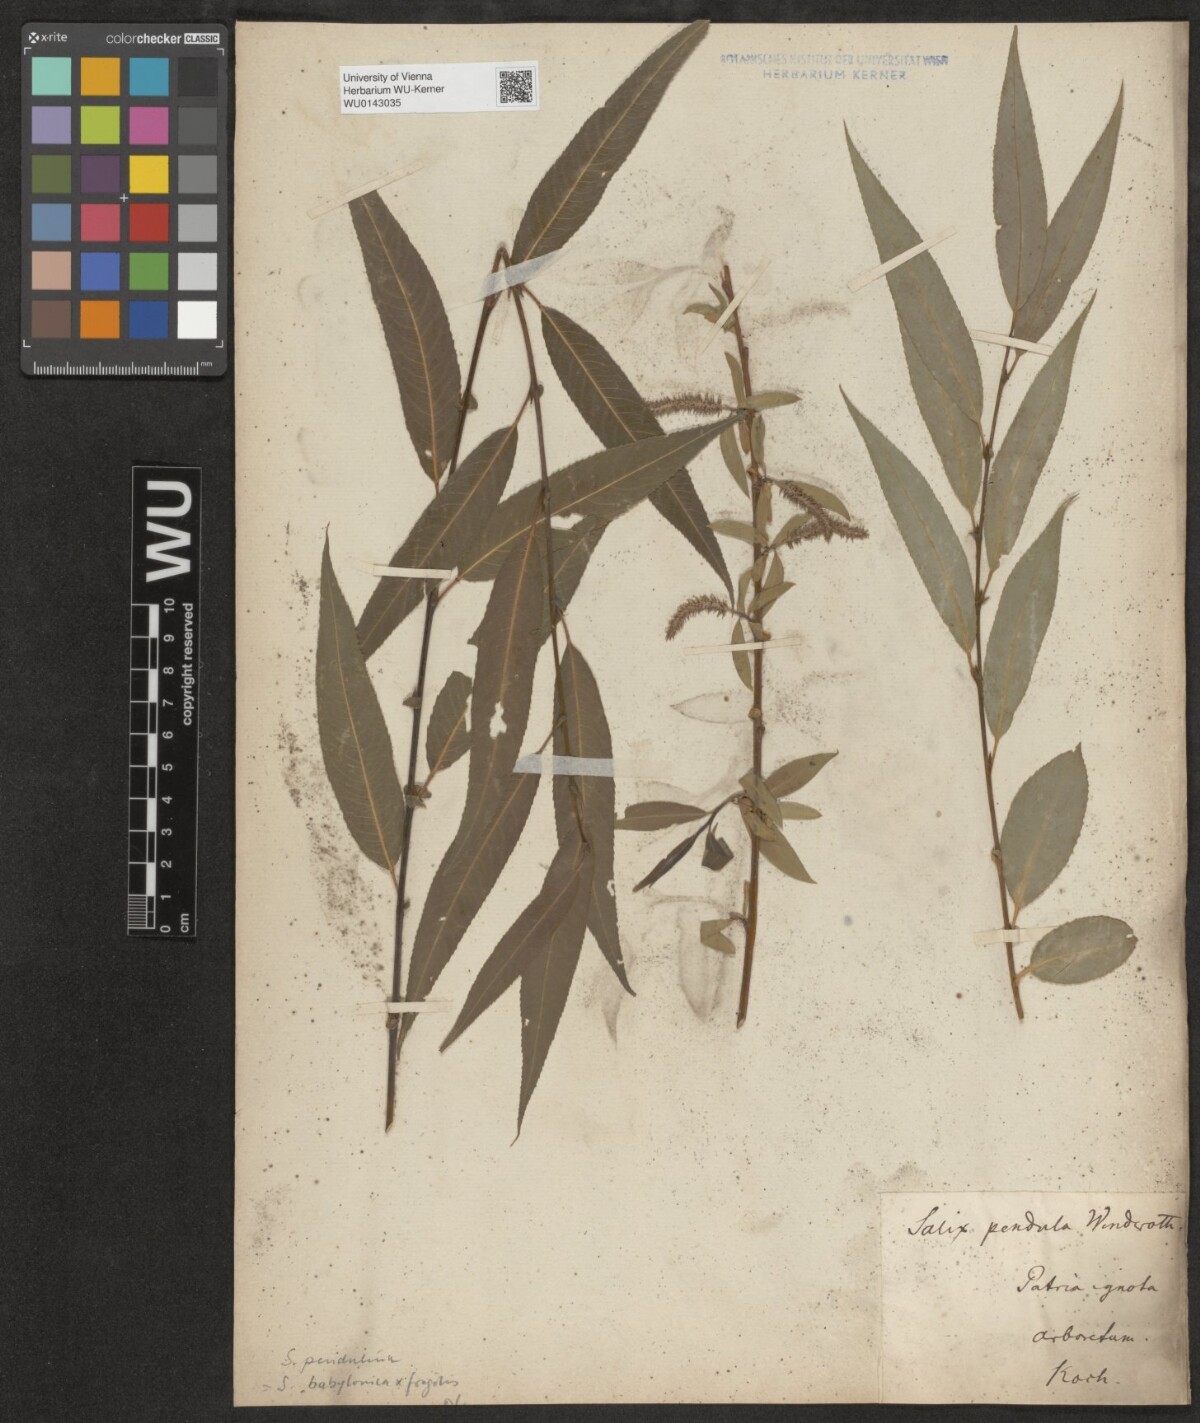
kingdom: Plantae
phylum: Tracheophyta
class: Magnoliopsida
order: Malpighiales
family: Salicaceae
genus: Salix
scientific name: Salix pendulina
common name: Wisconsin weeping willow
